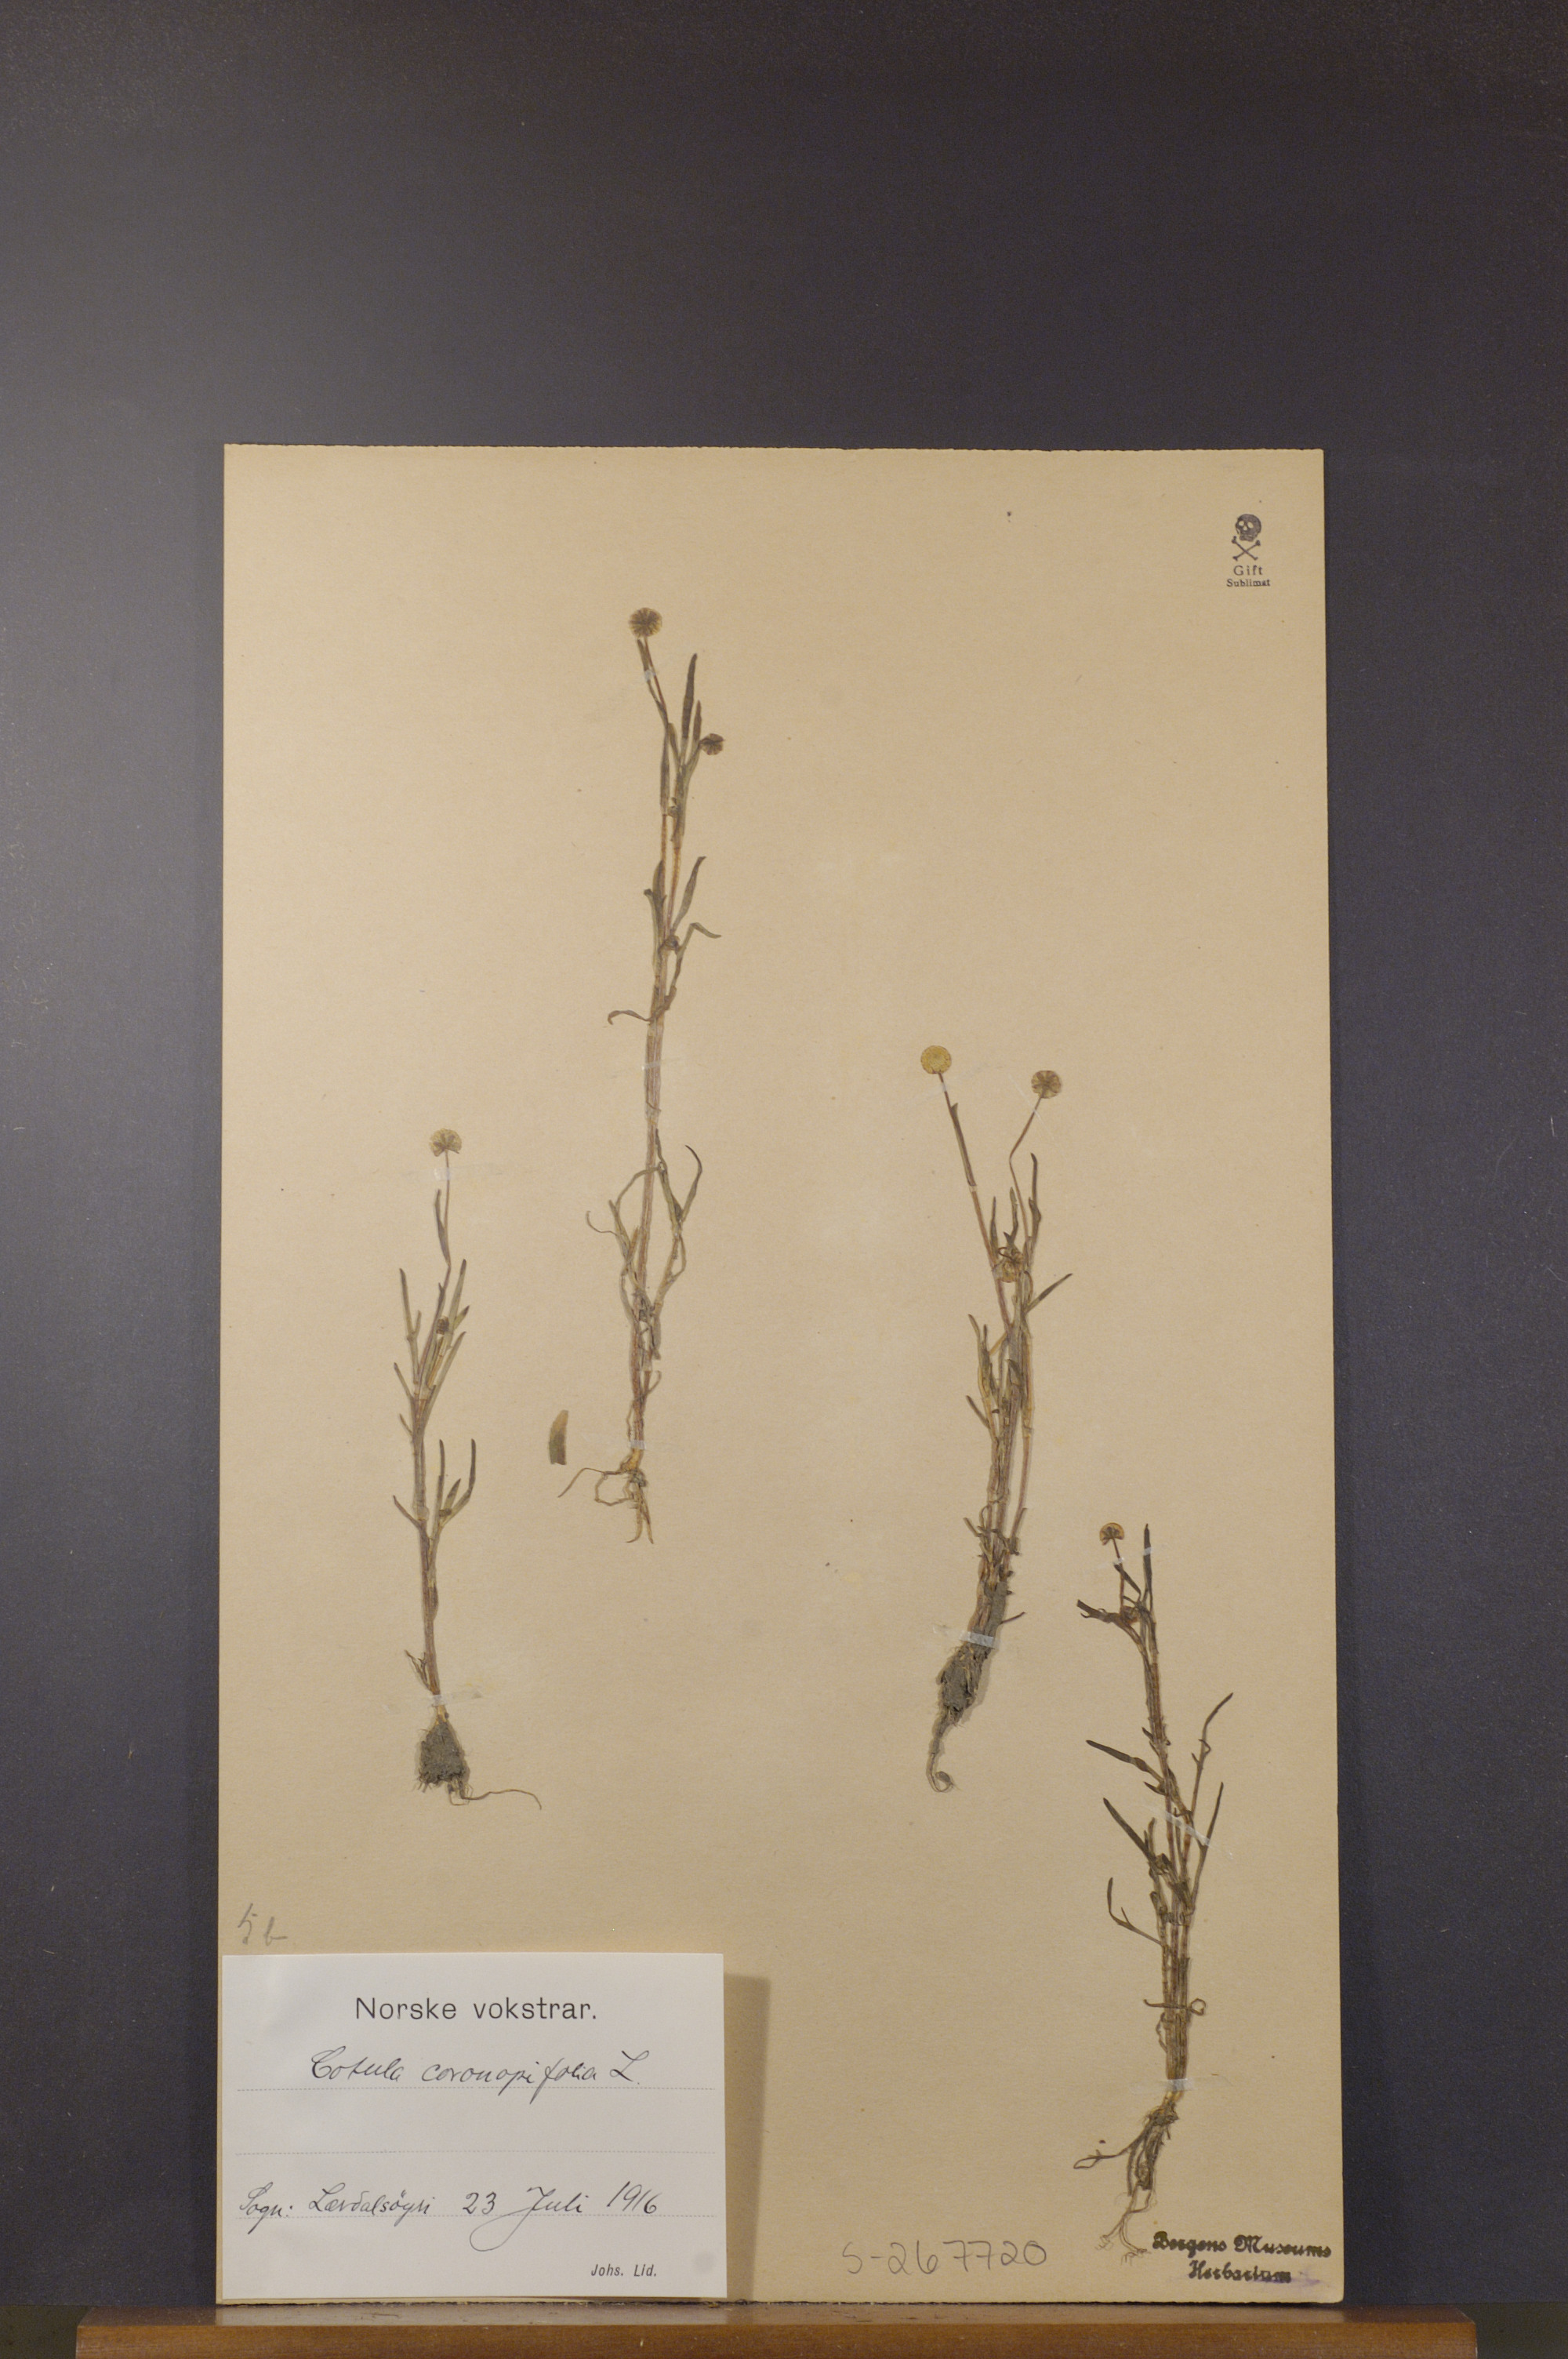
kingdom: Plantae
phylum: Tracheophyta
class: Magnoliopsida
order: Asterales
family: Asteraceae
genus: Cotula
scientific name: Cotula coronopifolia
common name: Buttonweed
